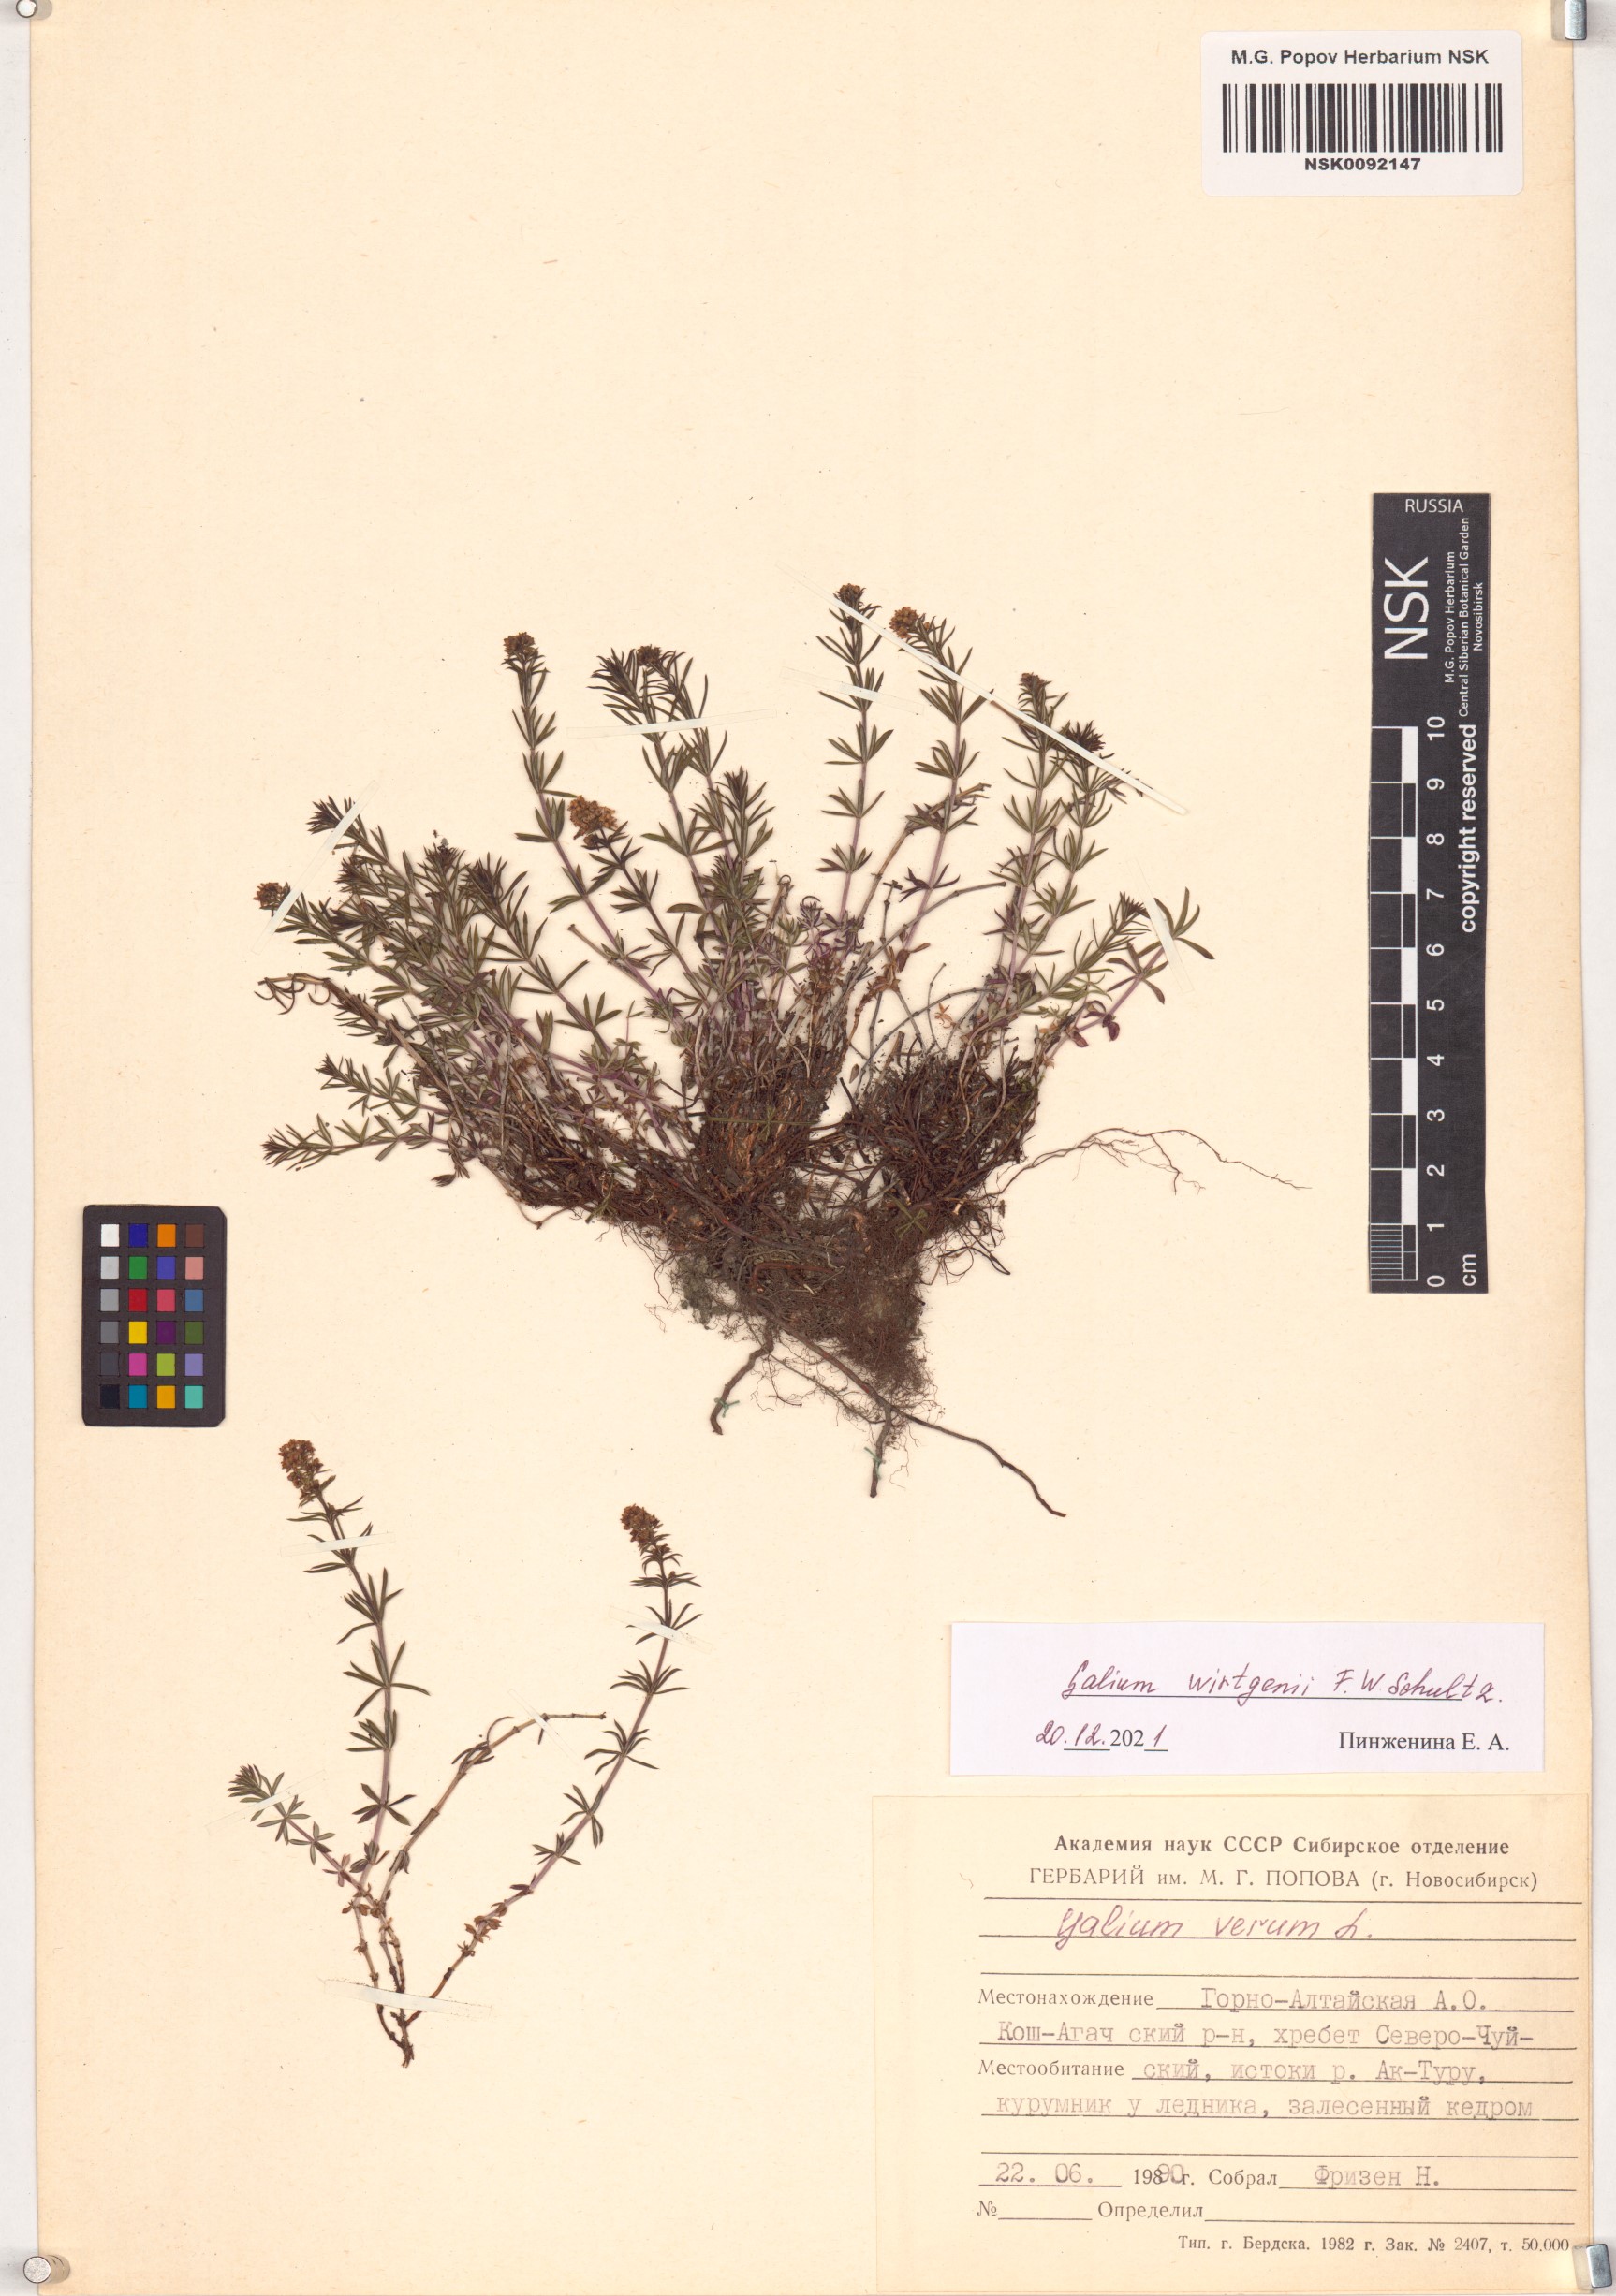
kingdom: Plantae
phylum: Tracheophyta
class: Magnoliopsida
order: Gentianales
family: Rubiaceae
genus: Galium
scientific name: Galium verum
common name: Lady's bedstraw
